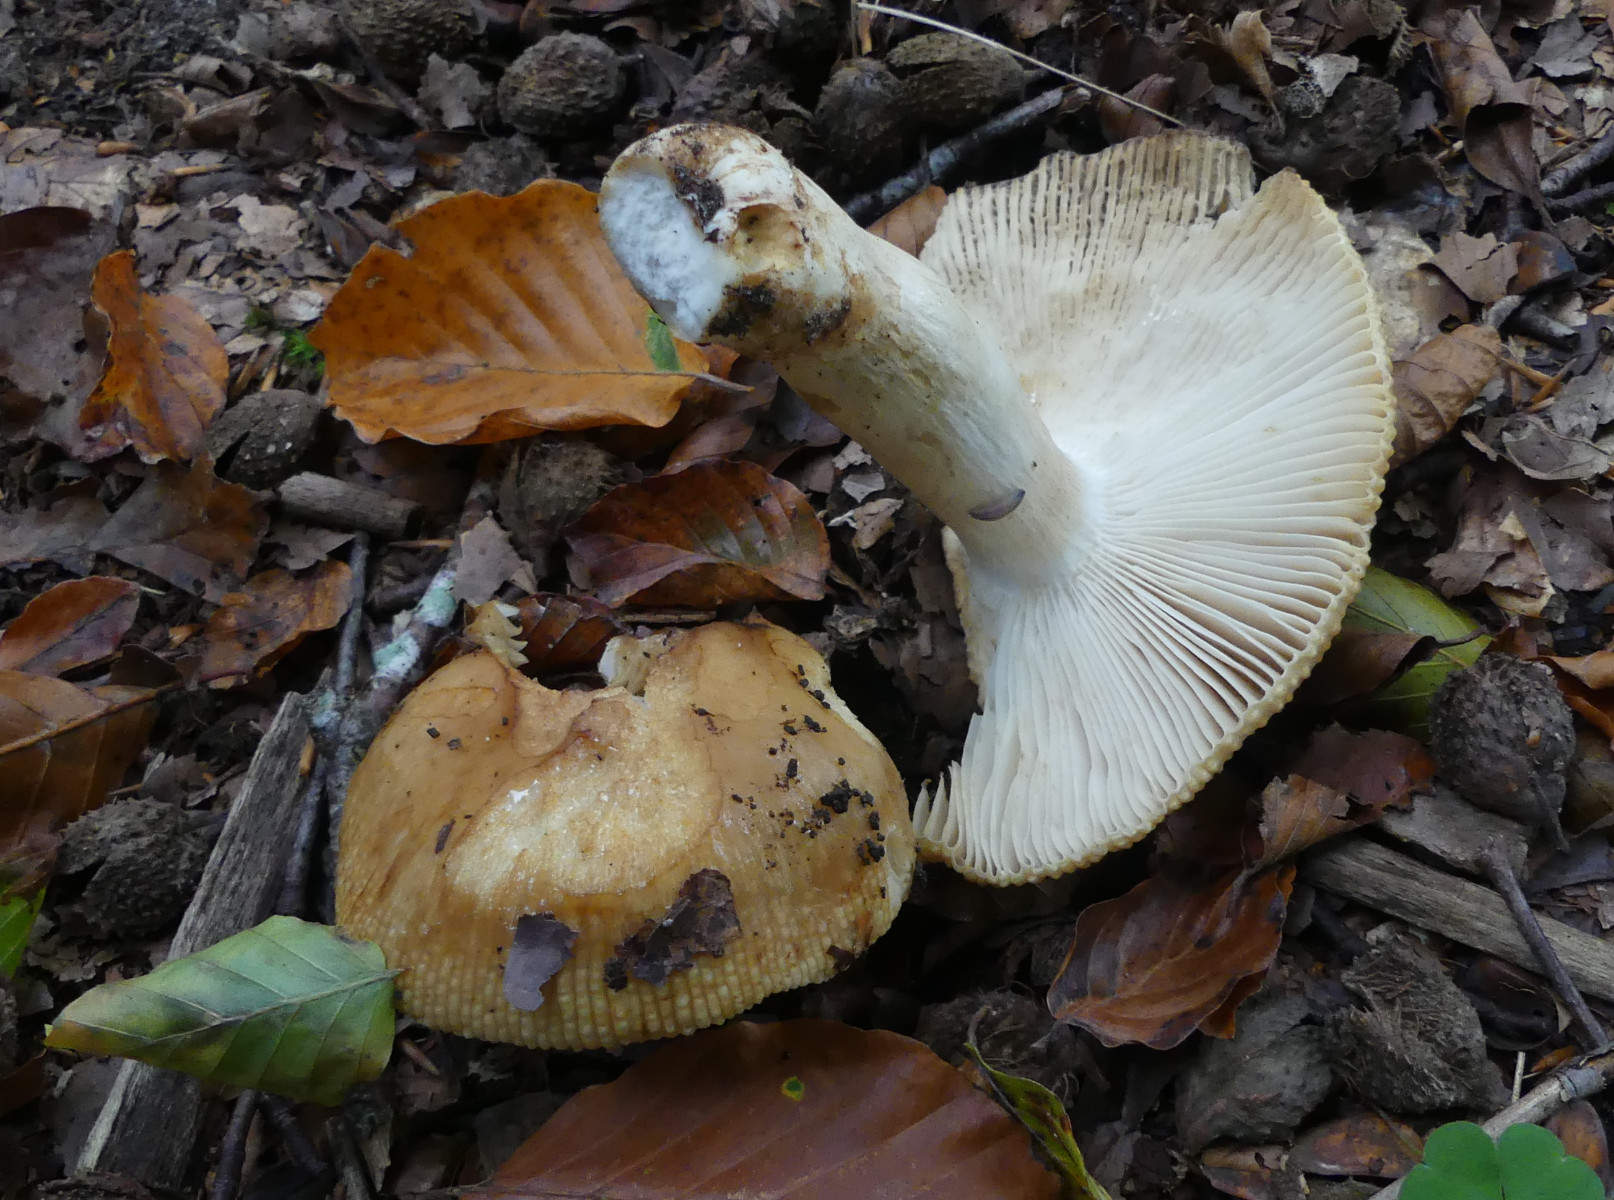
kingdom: Fungi
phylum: Basidiomycota
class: Agaricomycetes
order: Russulales
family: Russulaceae
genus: Russula
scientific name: Russula grata
